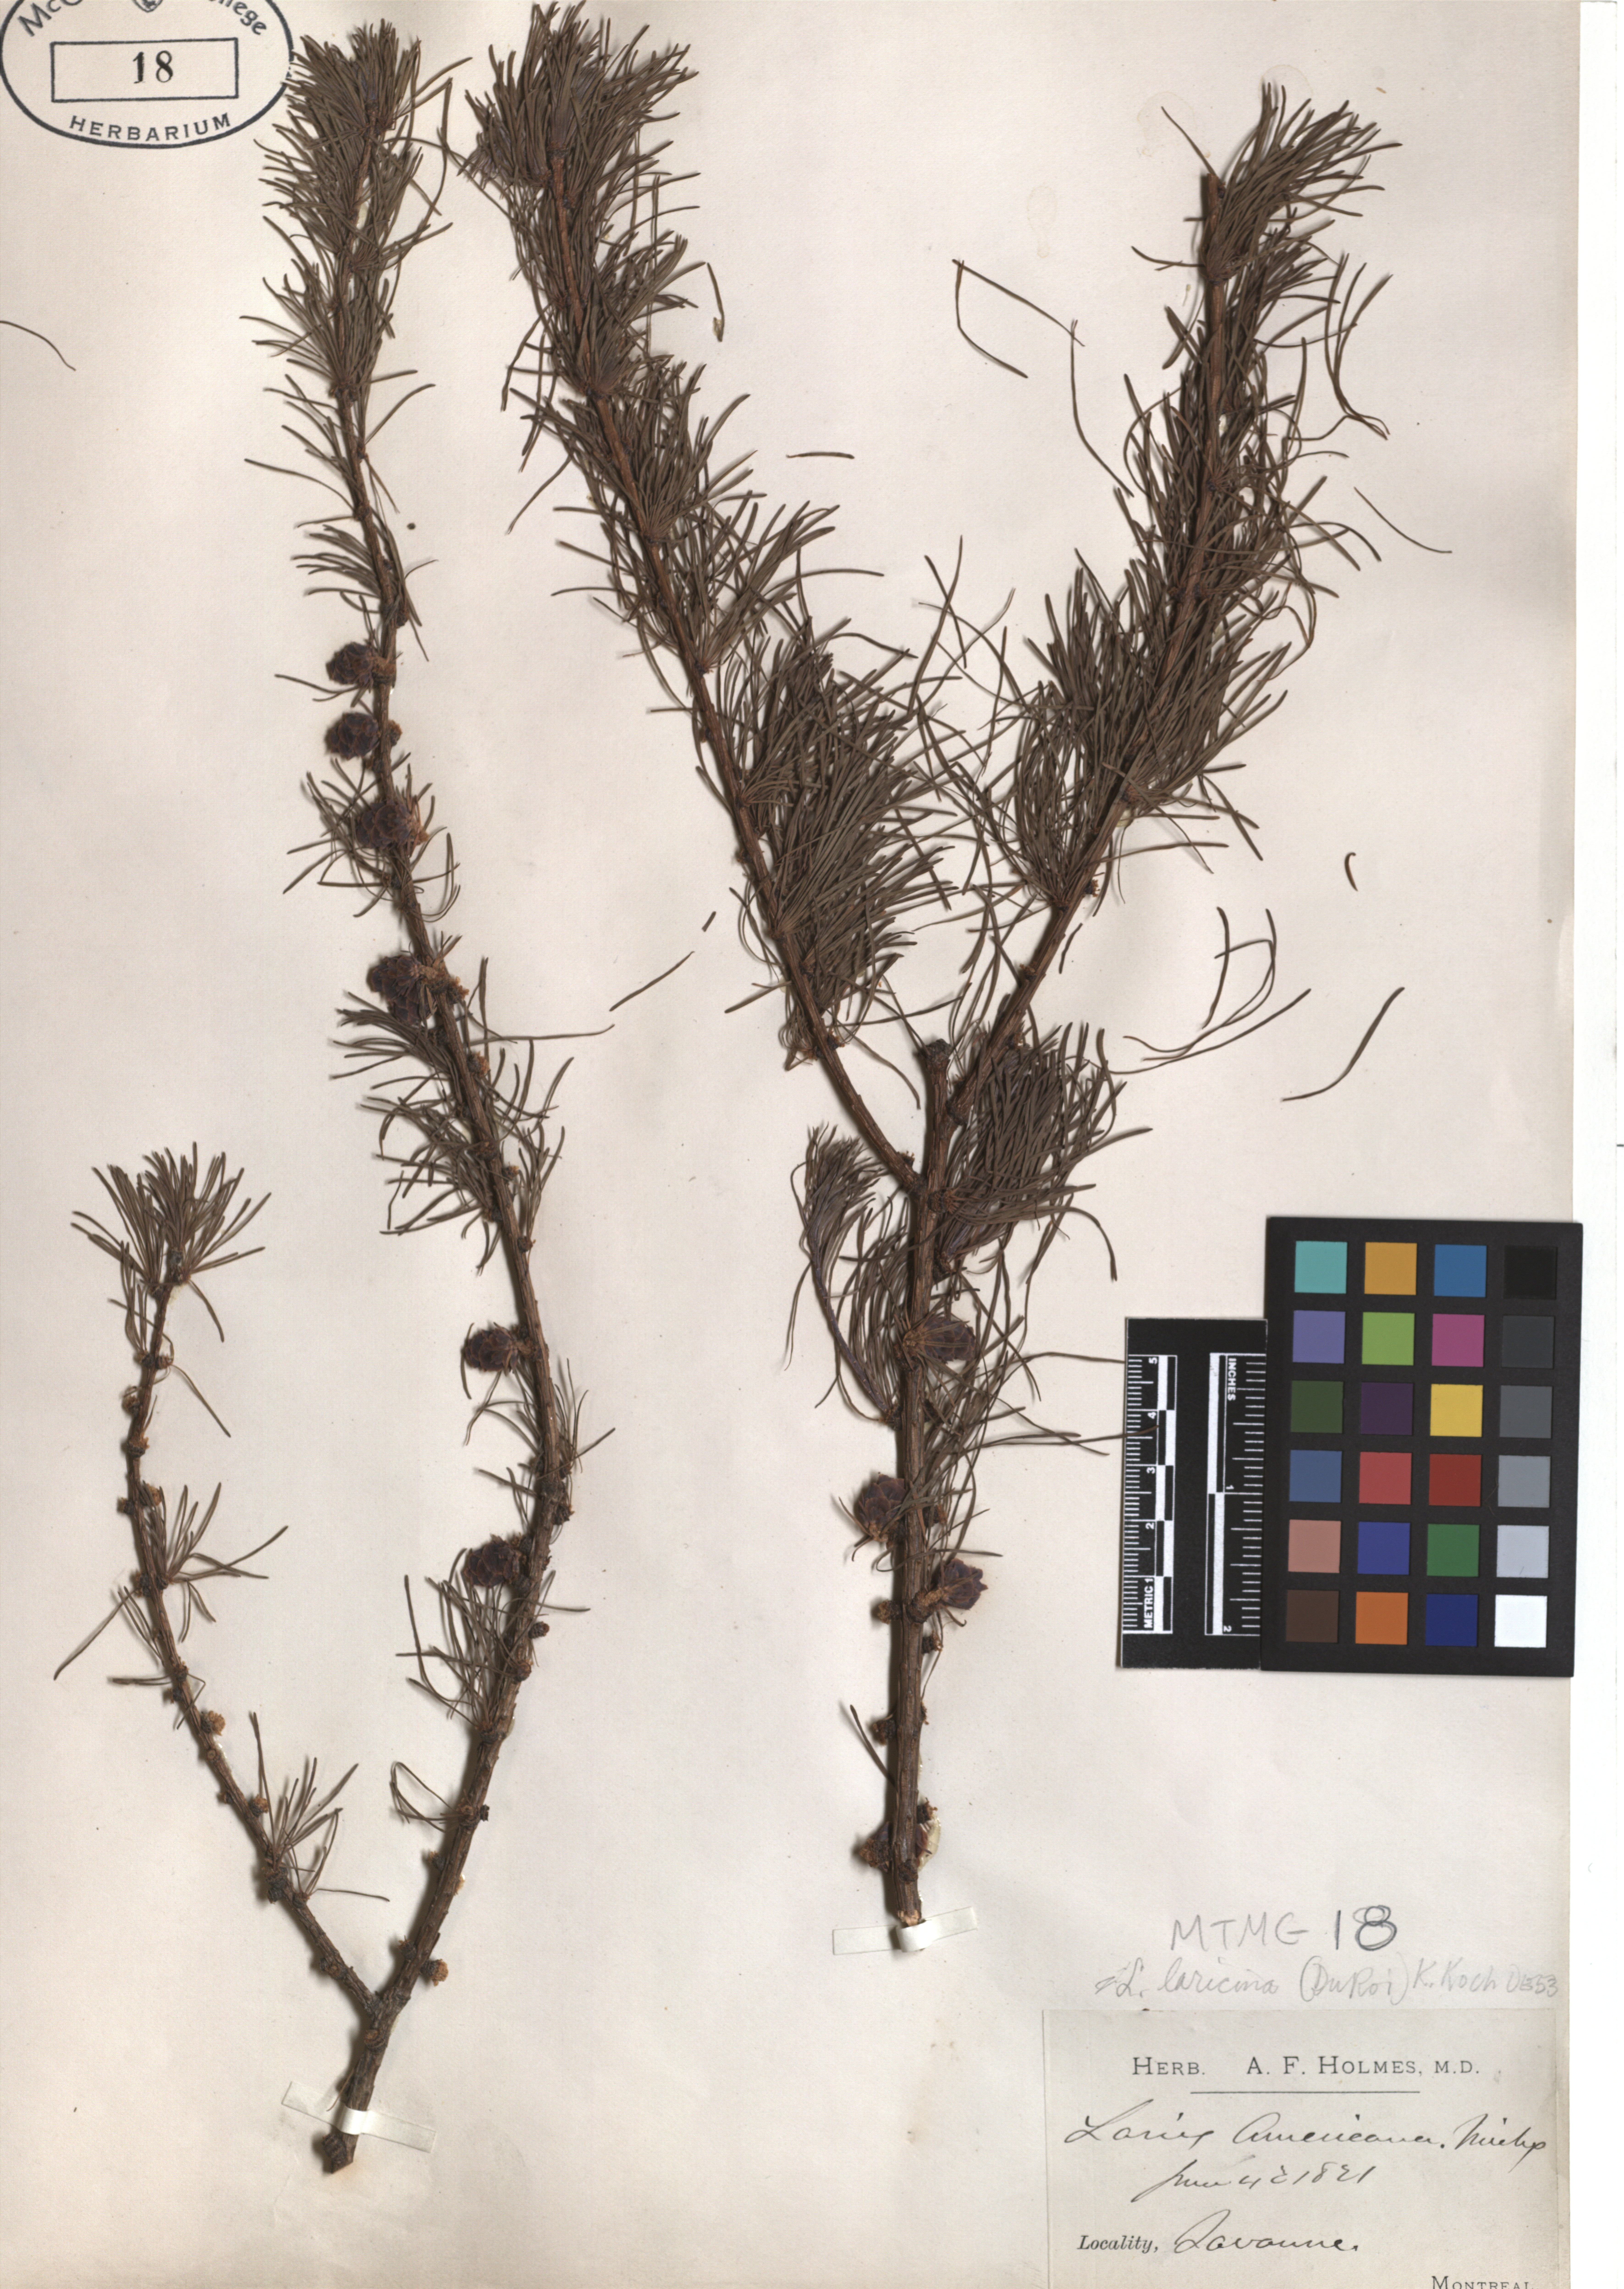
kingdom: Plantae
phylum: Tracheophyta
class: Pinopsida
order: Pinales
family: Pinaceae
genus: Larix
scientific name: Larix laricina
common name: American larch
